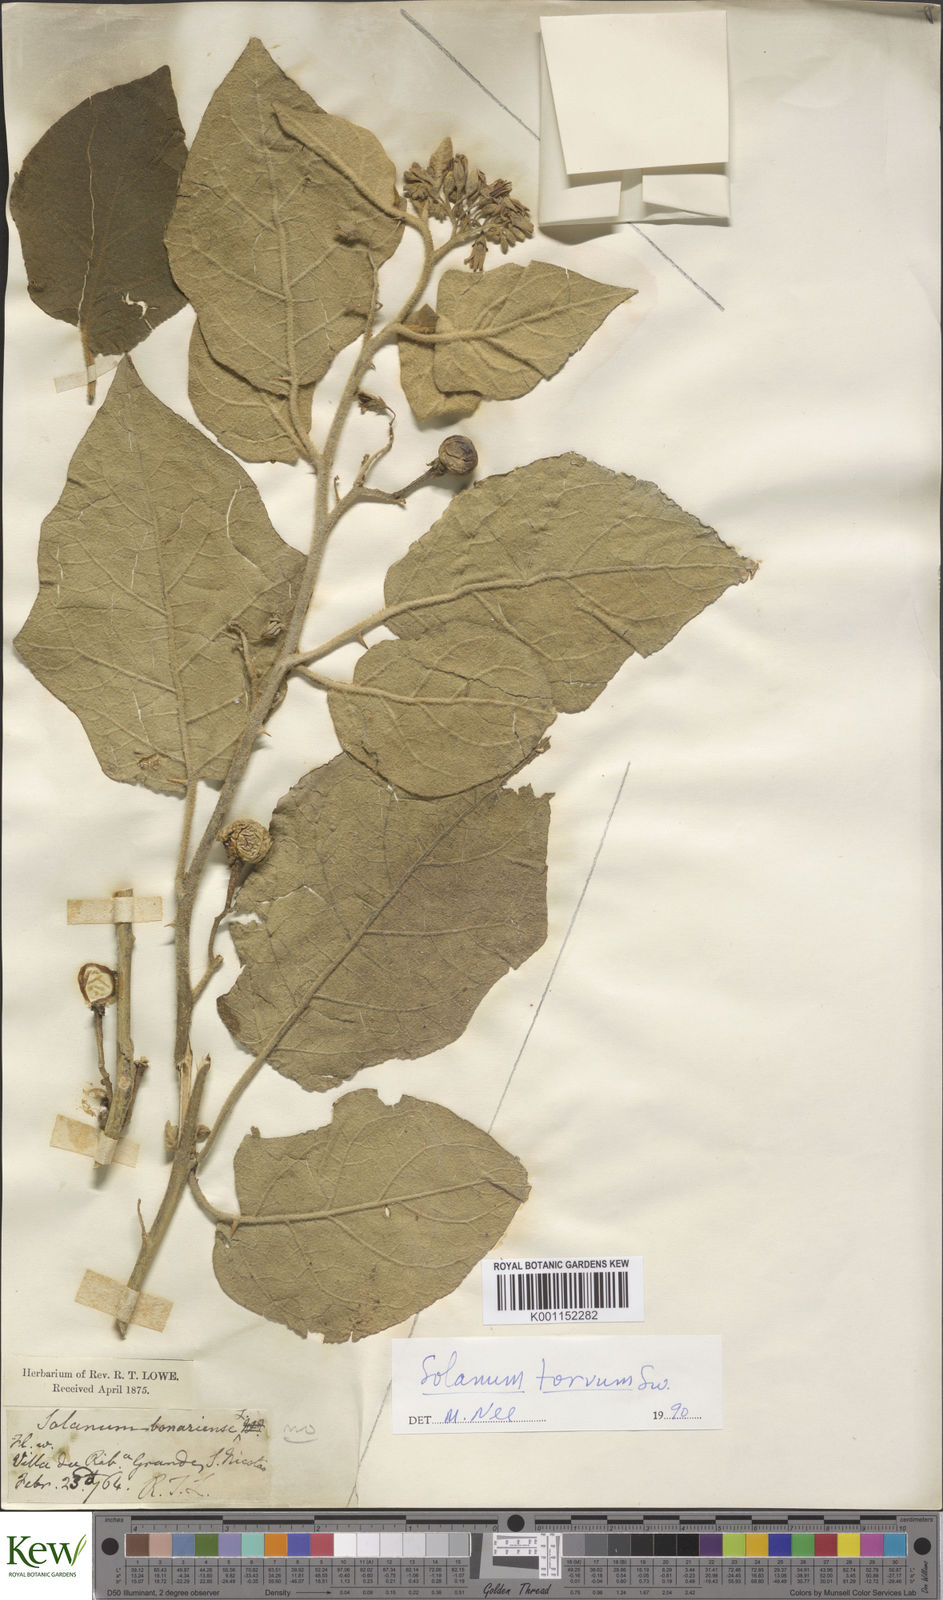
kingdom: Plantae
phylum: Tracheophyta
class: Magnoliopsida
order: Solanales
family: Solanaceae
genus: Solanum
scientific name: Solanum bonariense
